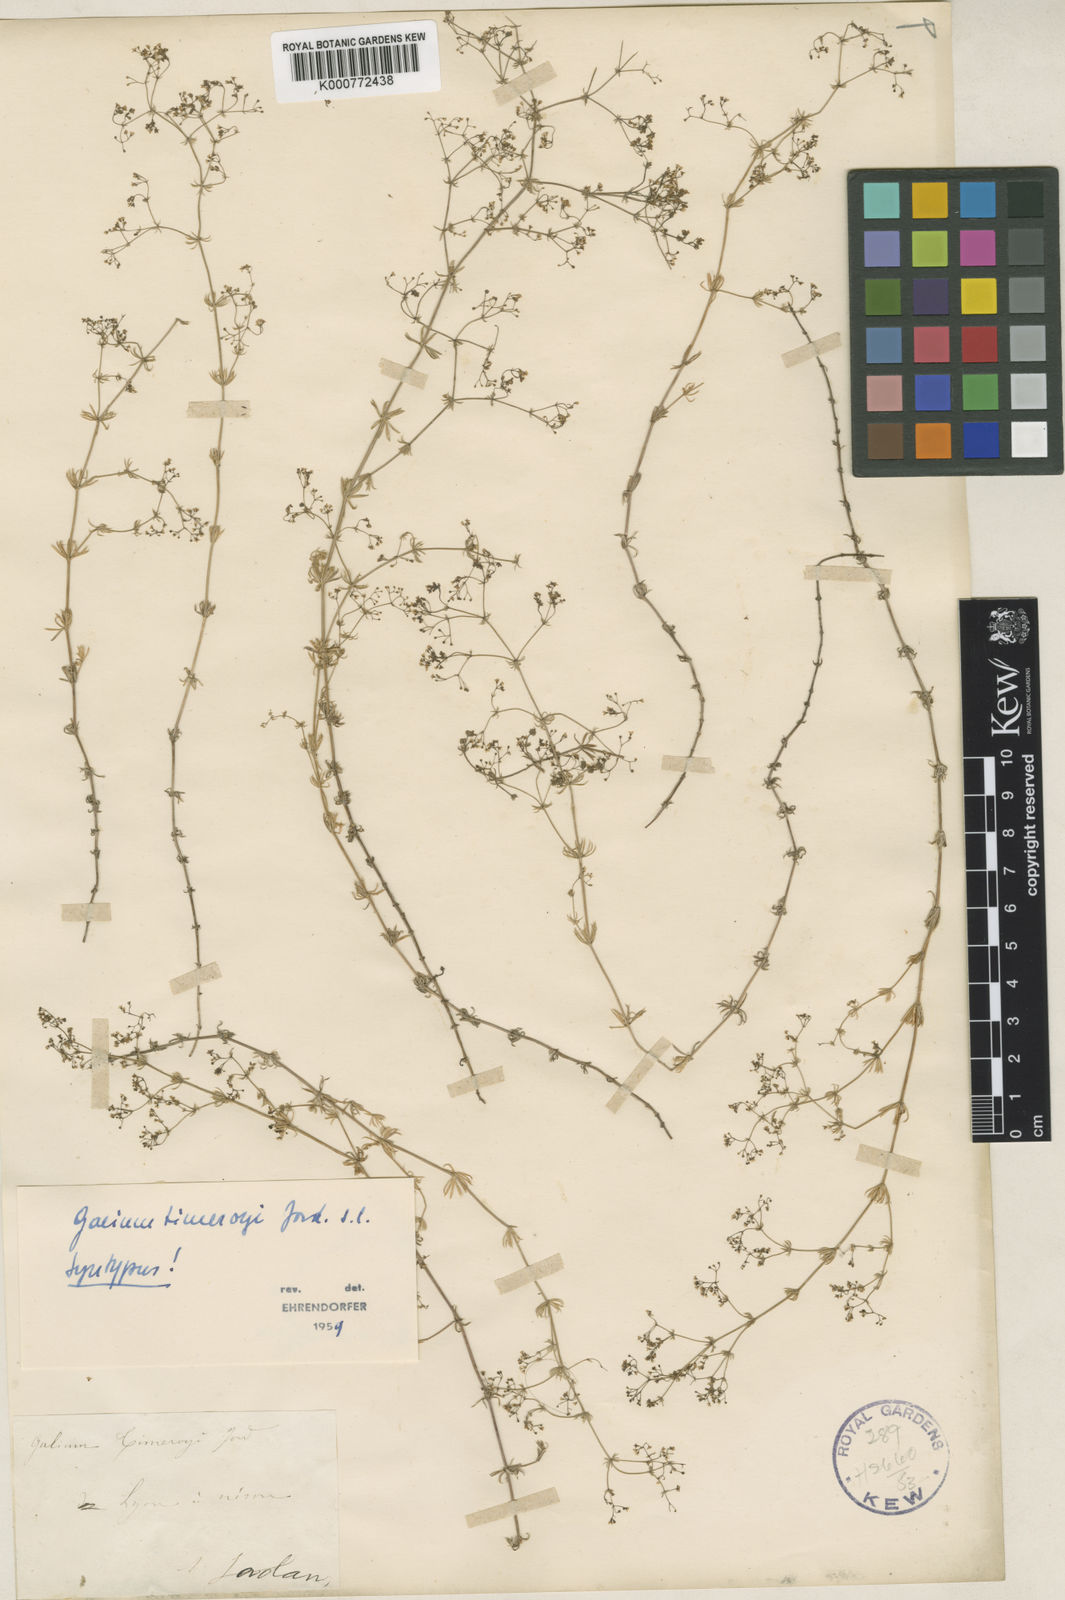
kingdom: Plantae
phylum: Tracheophyta
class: Magnoliopsida
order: Gentianales
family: Rubiaceae
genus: Galium
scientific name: Galium timeroyi
